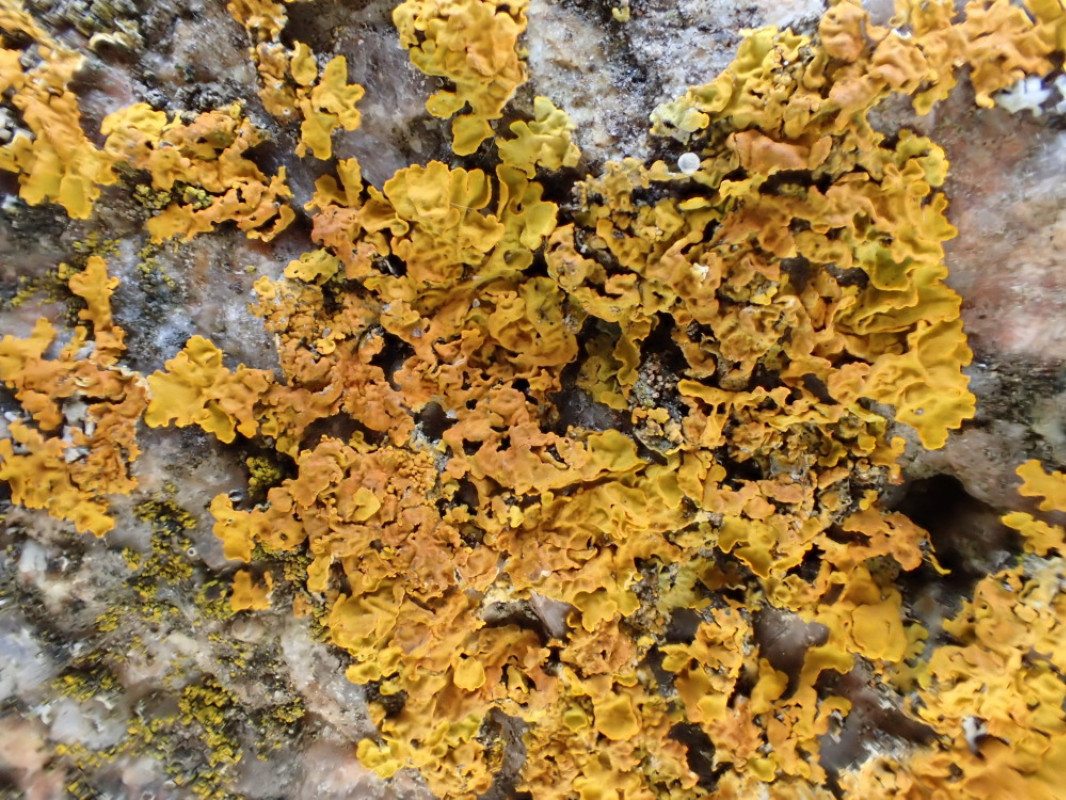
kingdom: Fungi
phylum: Ascomycota
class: Lecanoromycetes
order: Teloschistales
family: Teloschistaceae
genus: Xanthoria
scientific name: Xanthoria calcicola
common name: vortet væggelav
